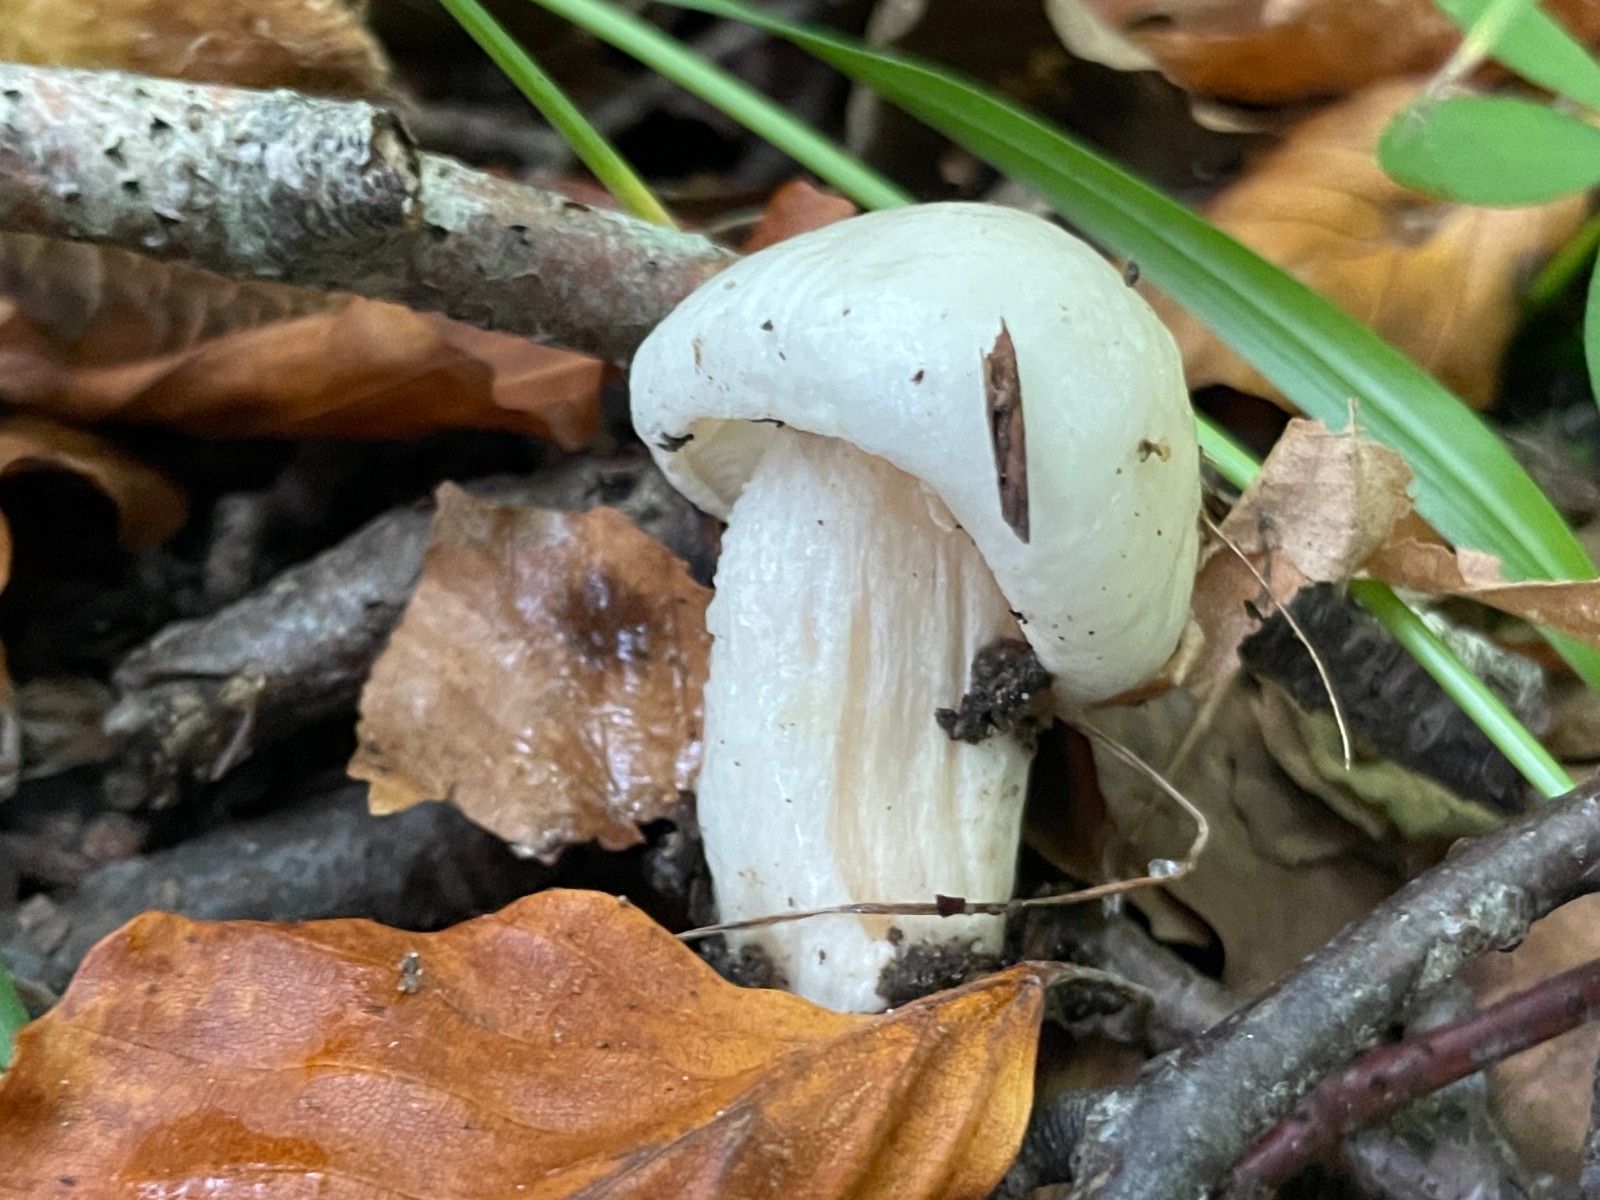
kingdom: Fungi
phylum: Basidiomycota
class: Agaricomycetes
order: Agaricales
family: Hygrophoraceae
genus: Hygrophorus
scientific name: Hygrophorus discoxanthus
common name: ildelugtende sneglehat
